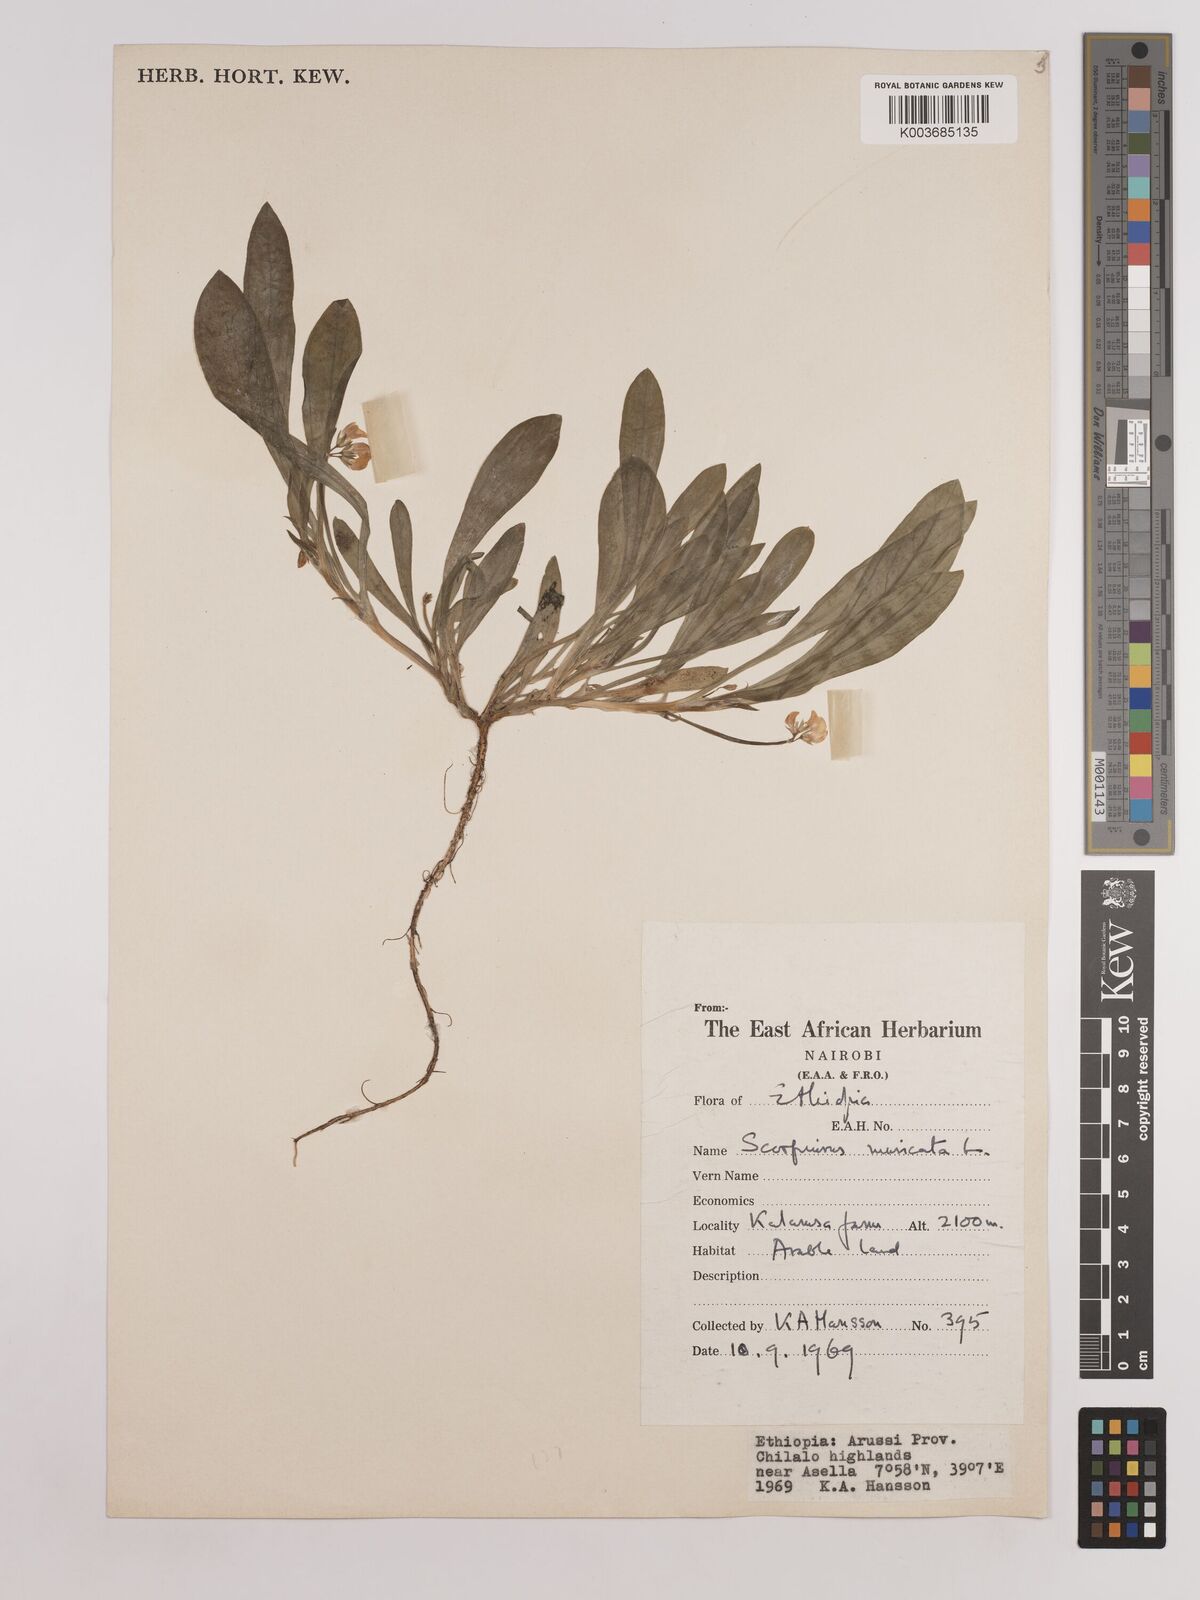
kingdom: Plantae
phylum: Tracheophyta
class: Magnoliopsida
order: Fabales
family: Fabaceae
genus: Scorpiurus
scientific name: Scorpiurus muricatus
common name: Caterpillar-plant
